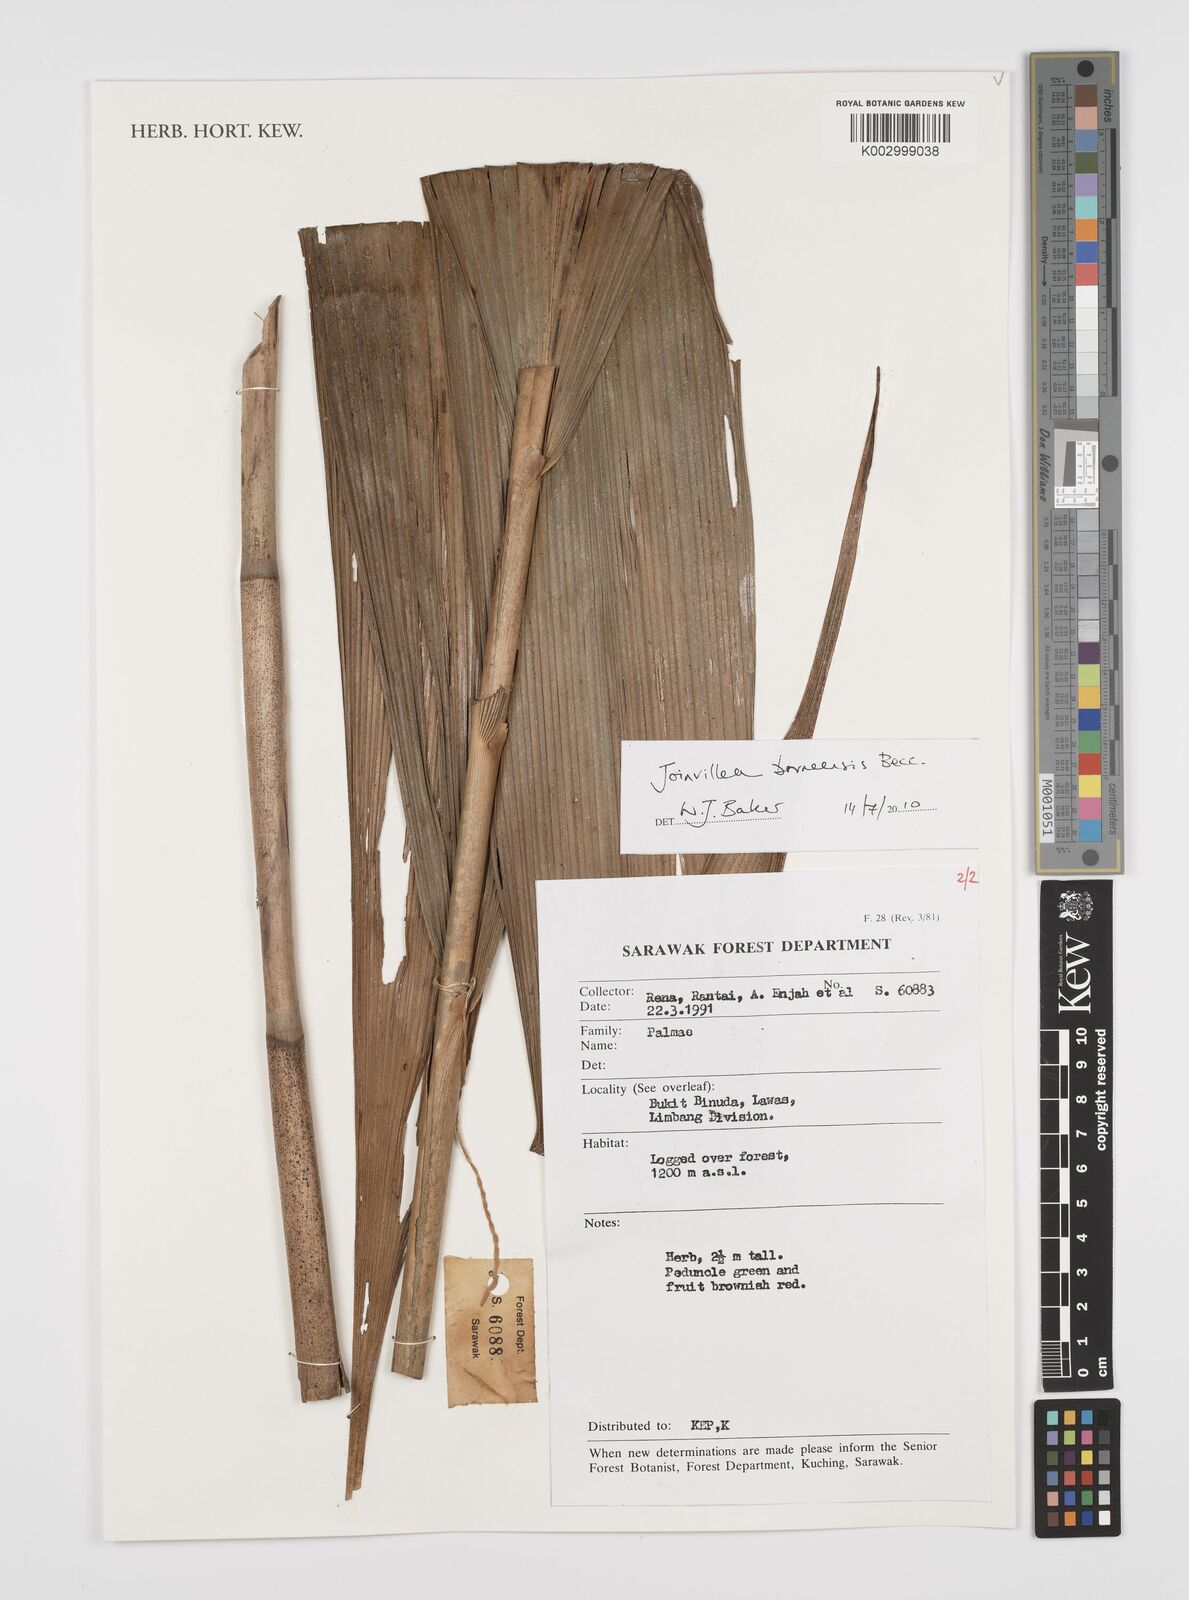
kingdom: Plantae
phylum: Tracheophyta
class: Liliopsida
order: Poales
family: Joinvilleaceae
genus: Joinvillea
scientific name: Joinvillea borneensis
